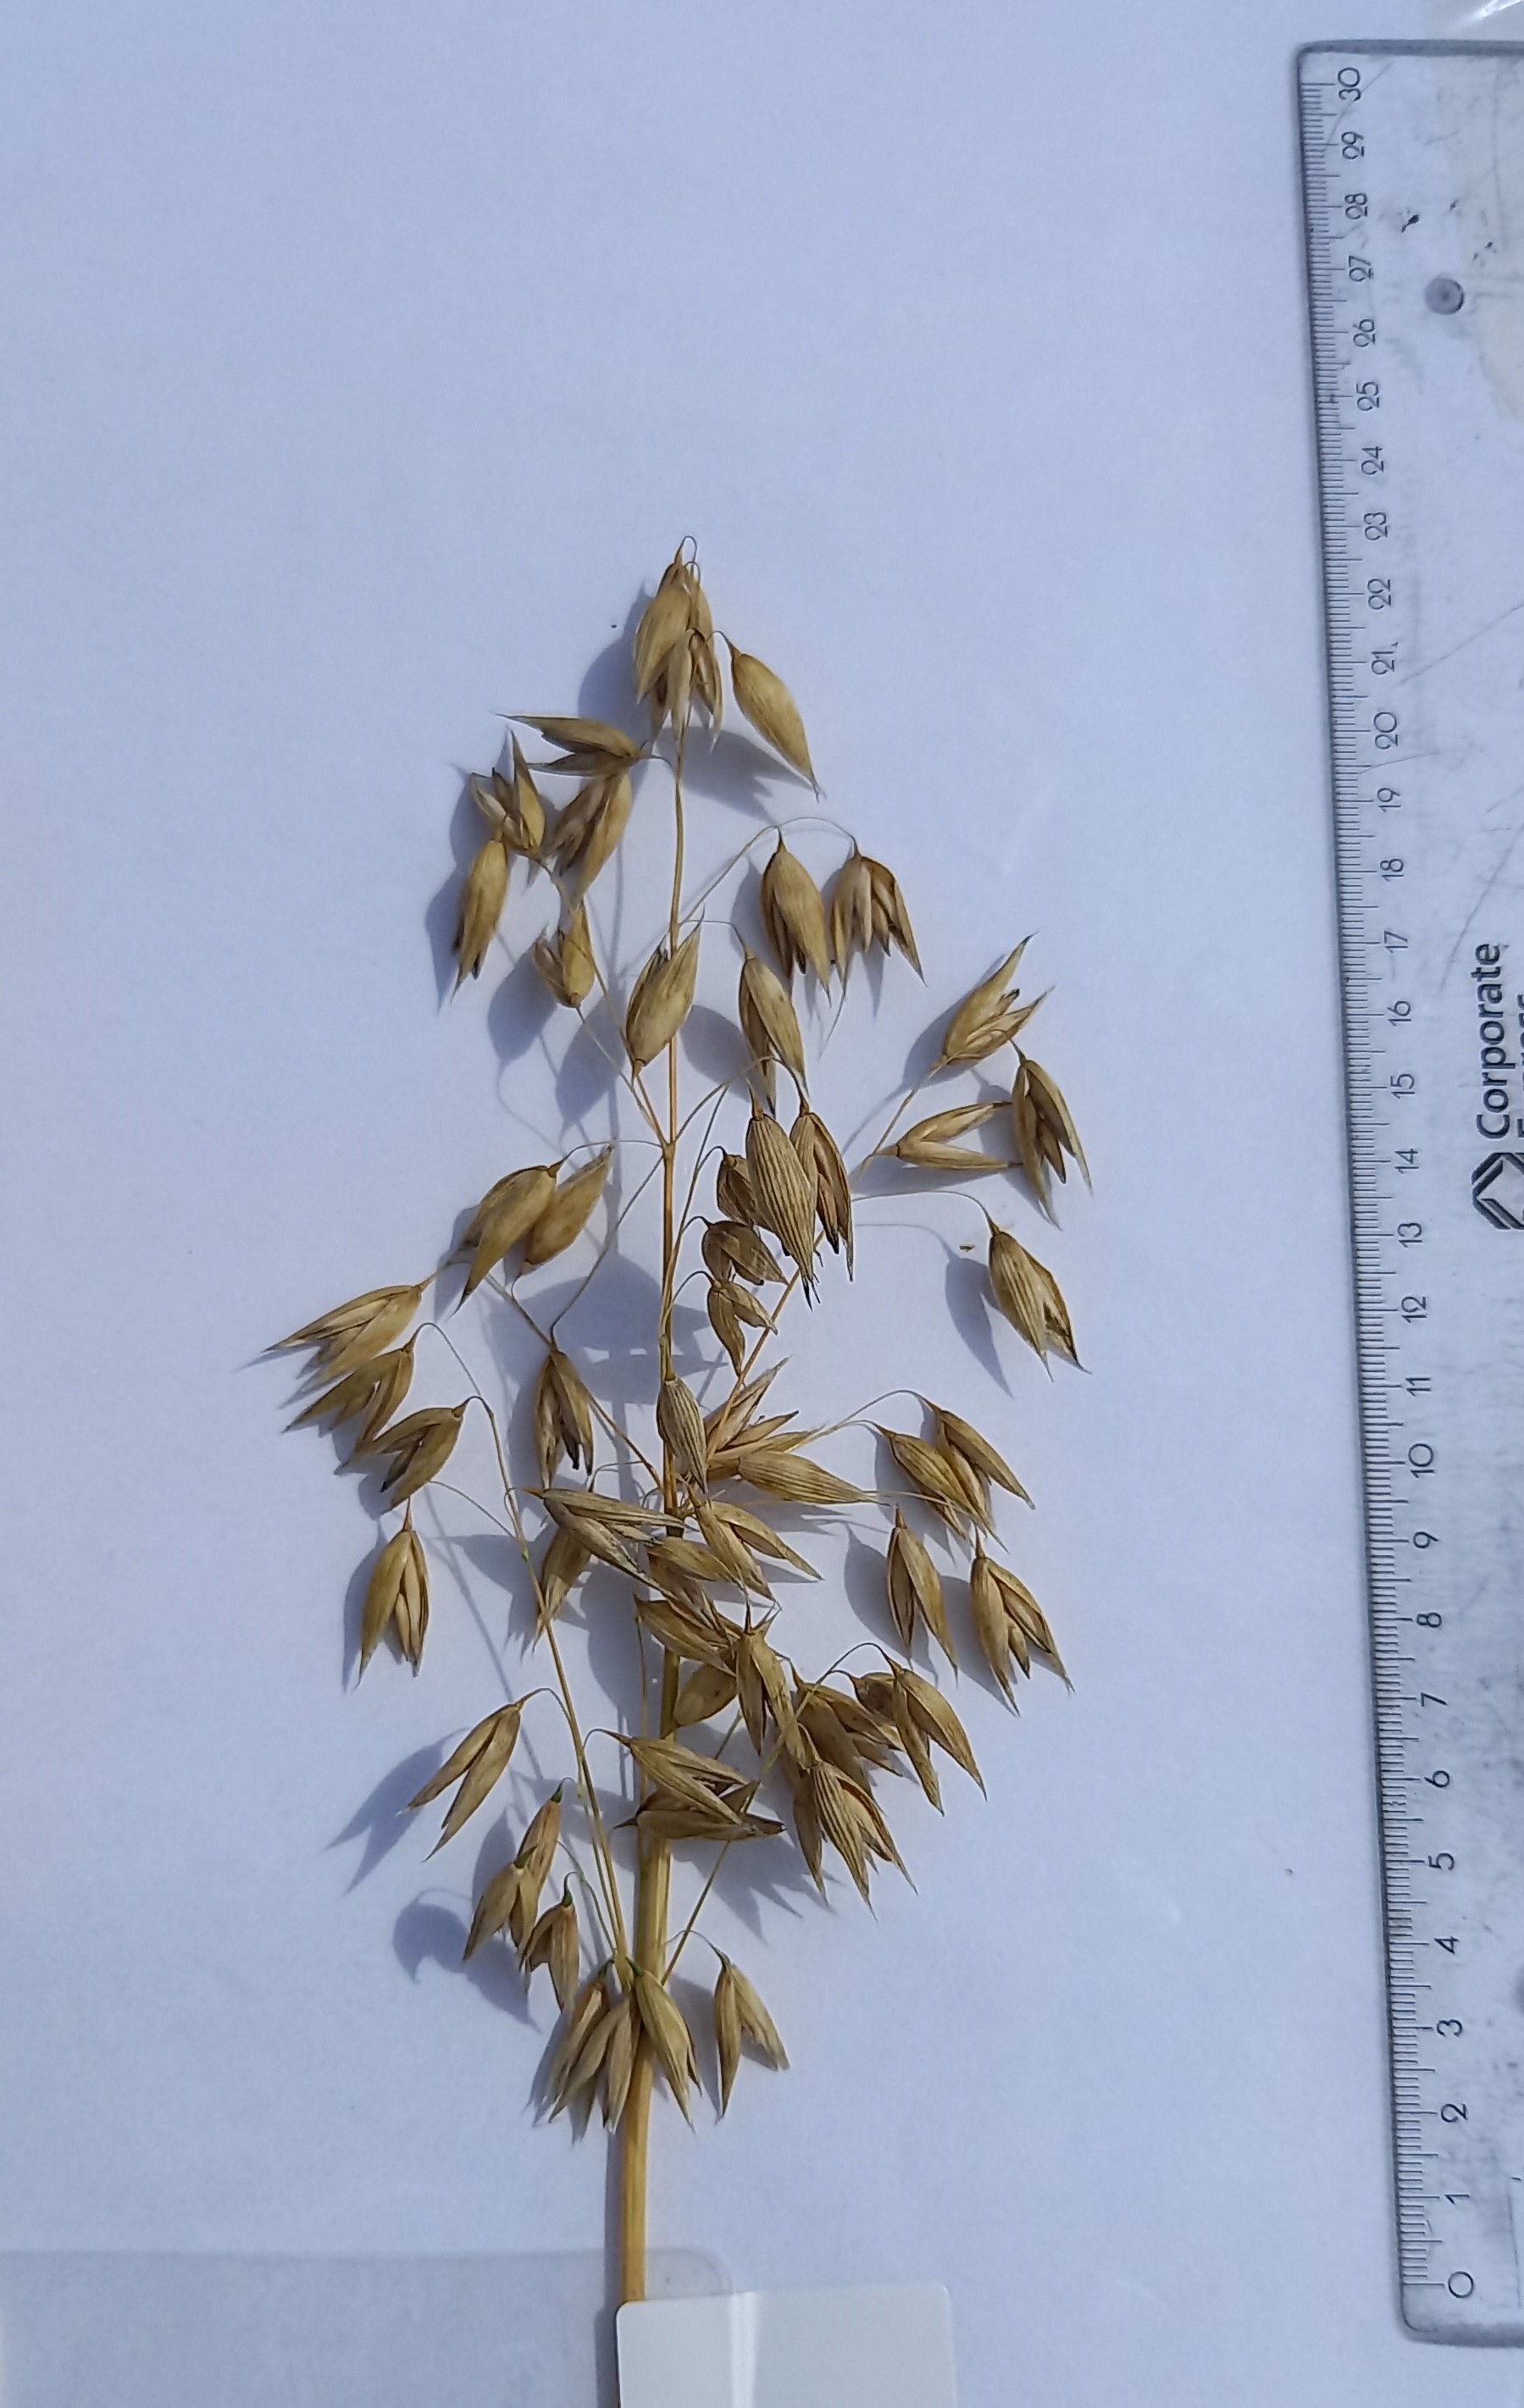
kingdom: Plantae
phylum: Tracheophyta
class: Liliopsida
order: Poales
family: Poaceae
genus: Avena
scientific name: Avena sativa
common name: Oat
